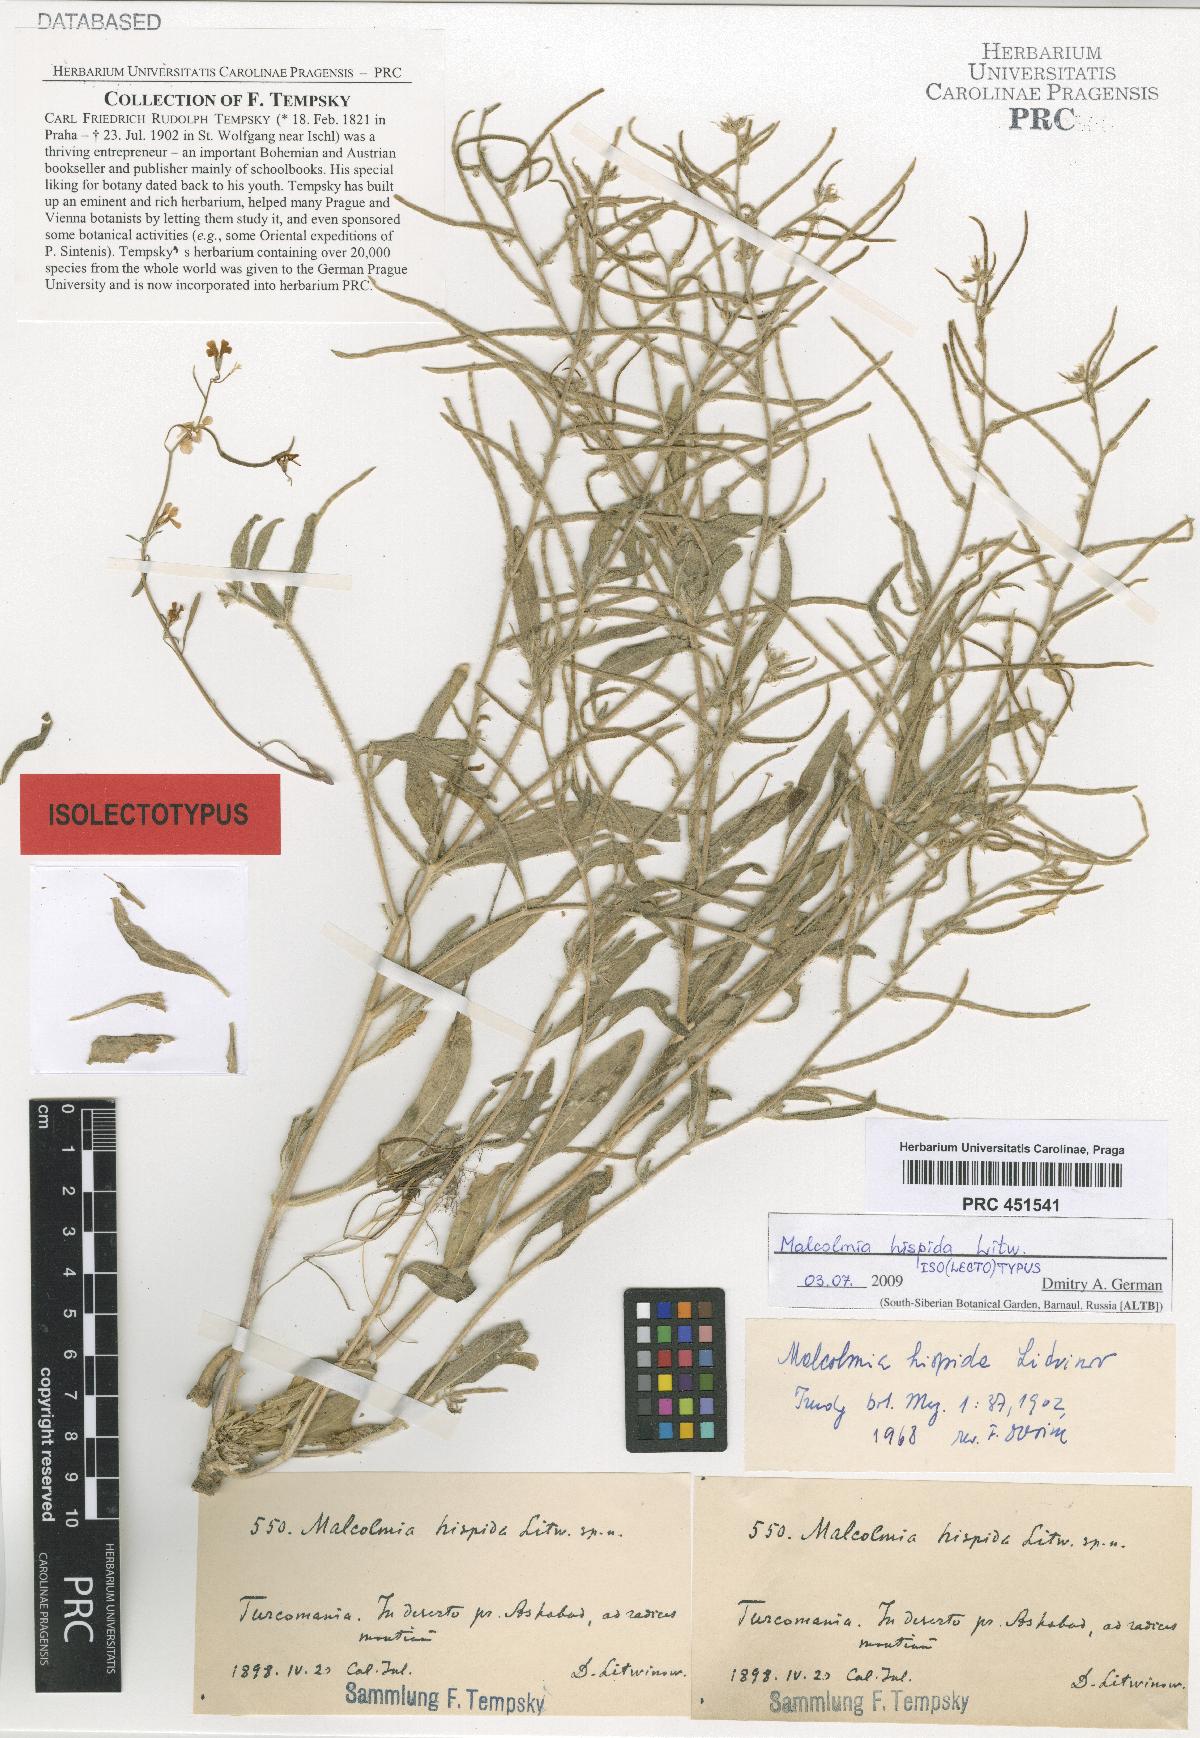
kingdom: Plantae
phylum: Tracheophyta
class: Magnoliopsida
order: Brassicales
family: Brassicaceae
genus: Strigosella
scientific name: Strigosella hispida
